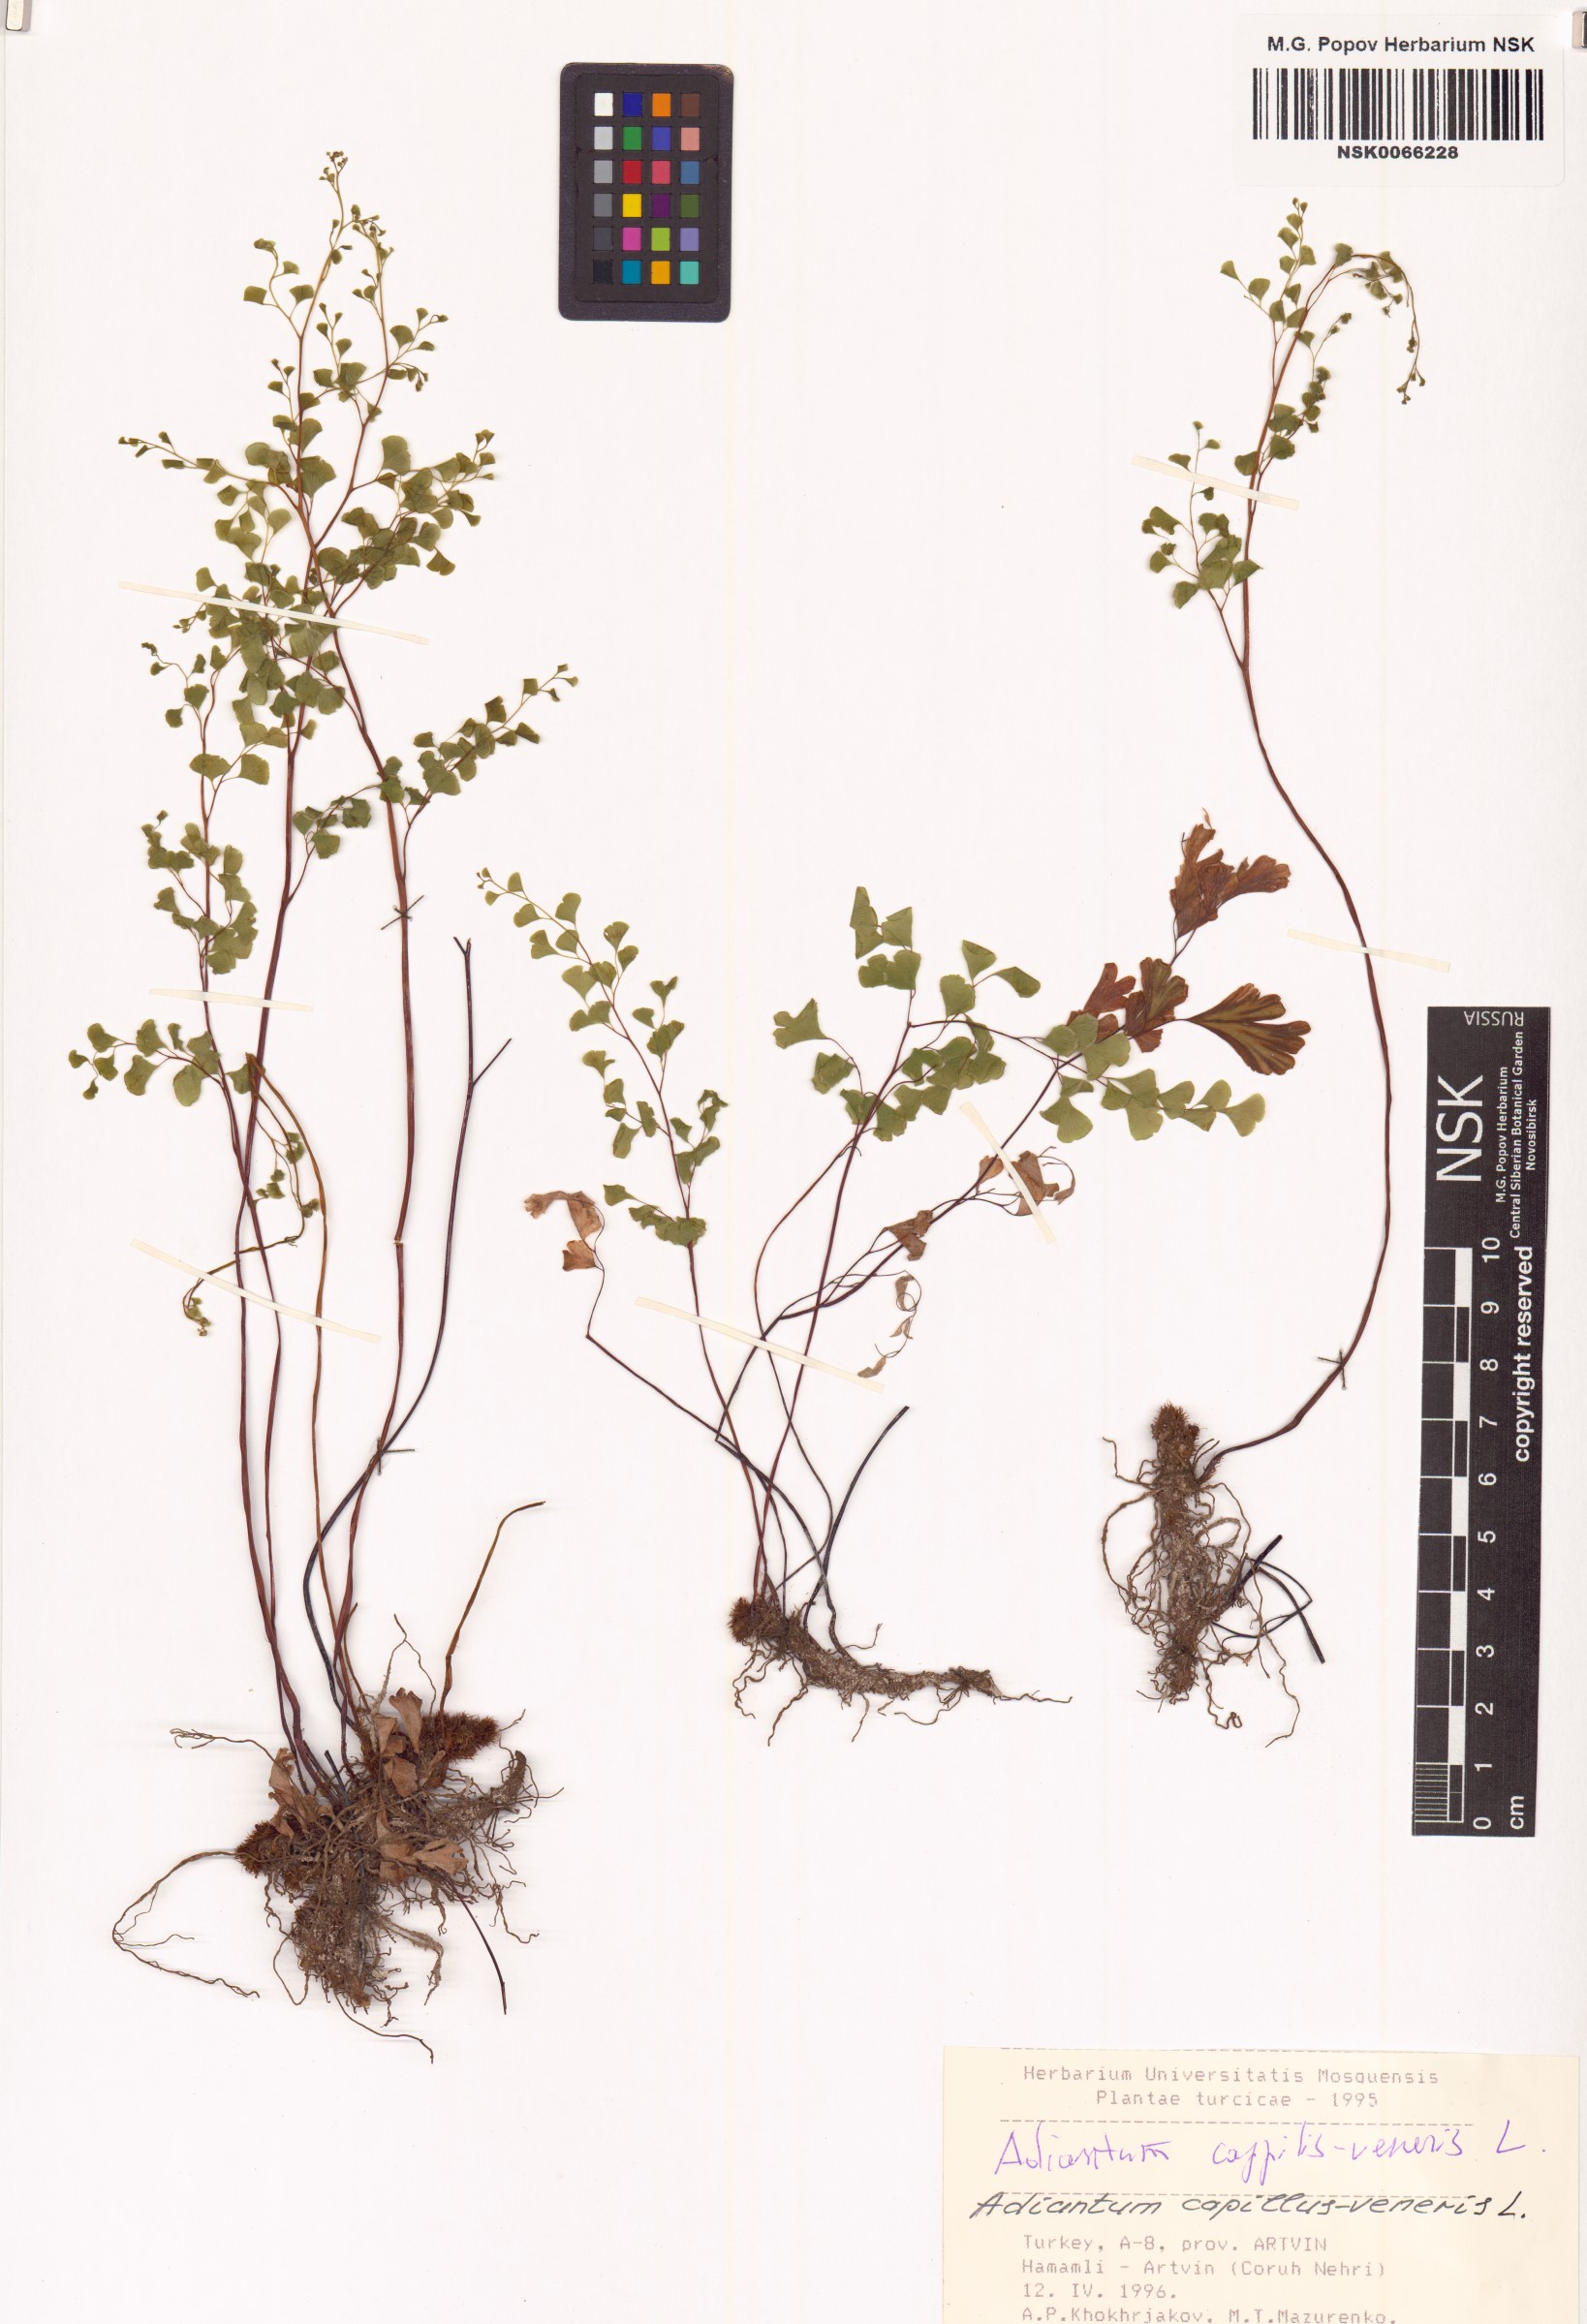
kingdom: Plantae
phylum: Tracheophyta
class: Polypodiopsida
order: Polypodiales
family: Pteridaceae
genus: Adiantum
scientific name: Adiantum capillus-veneris
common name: Maidenhair fern
